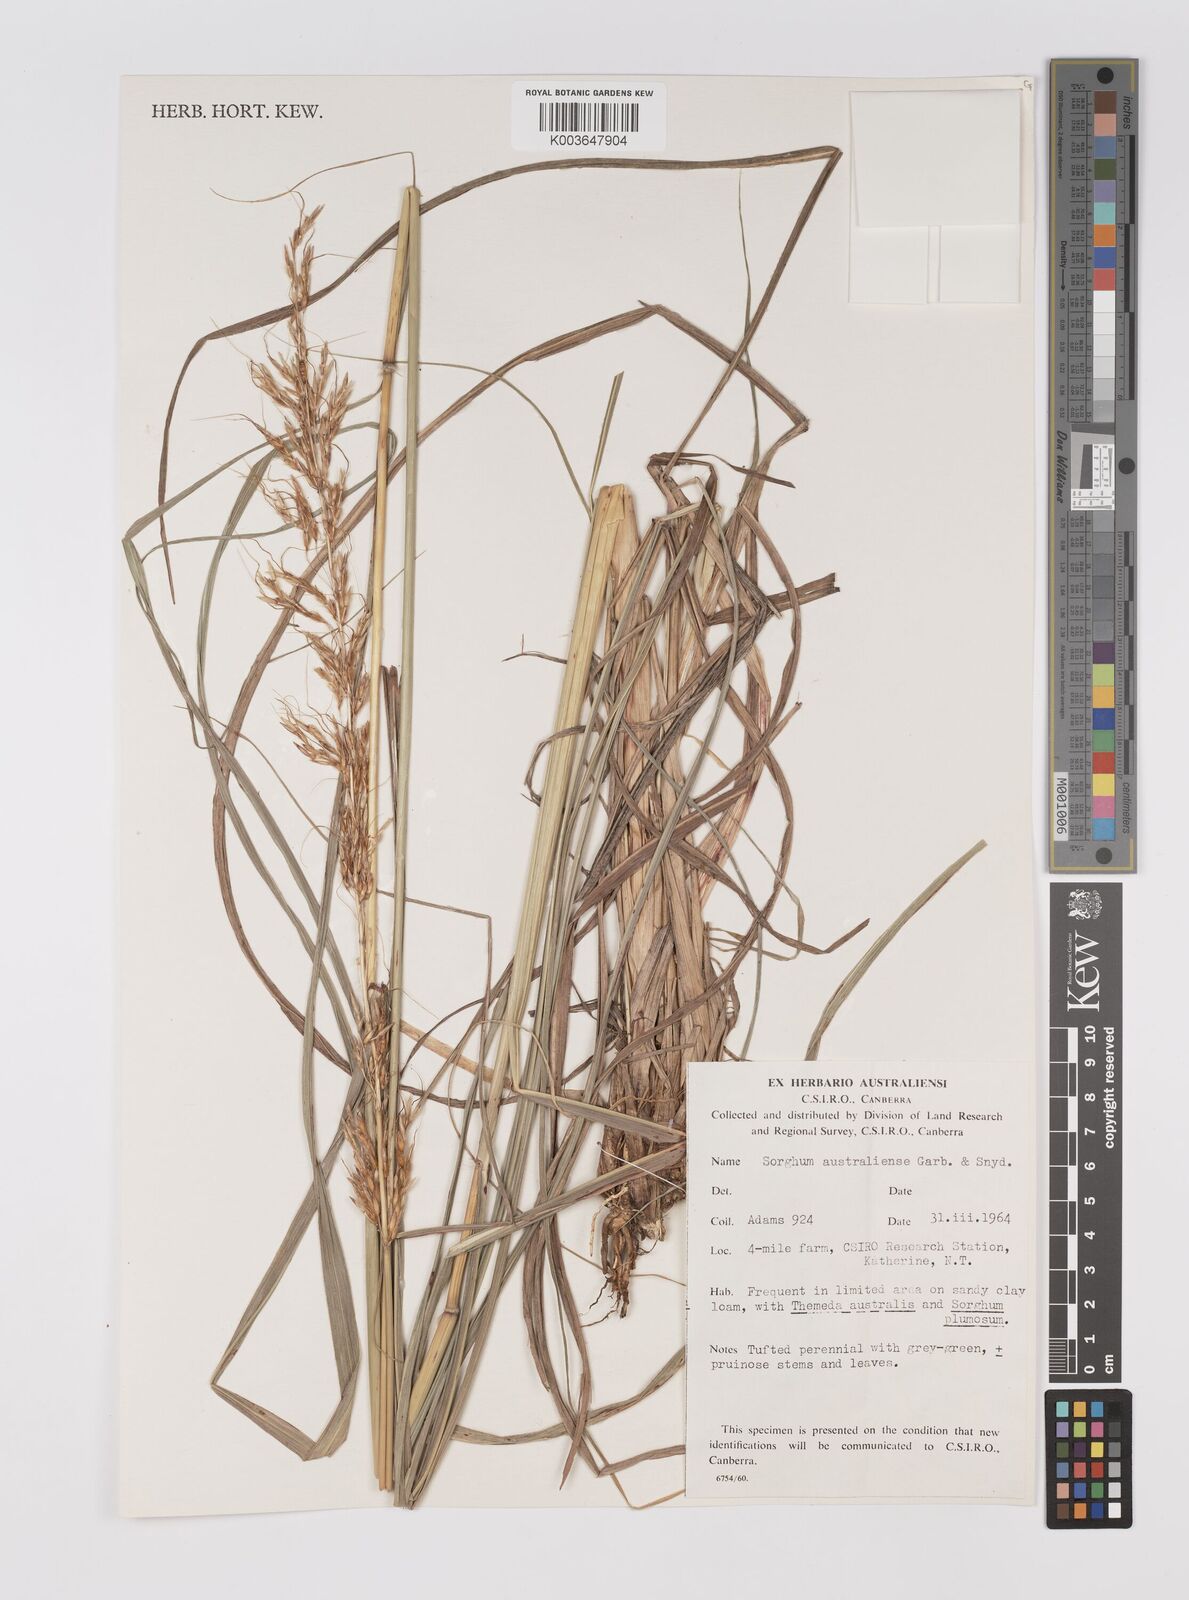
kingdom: Plantae
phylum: Tracheophyta
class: Liliopsida
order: Poales
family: Poaceae
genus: Sarga
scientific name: Sarga timorensis
